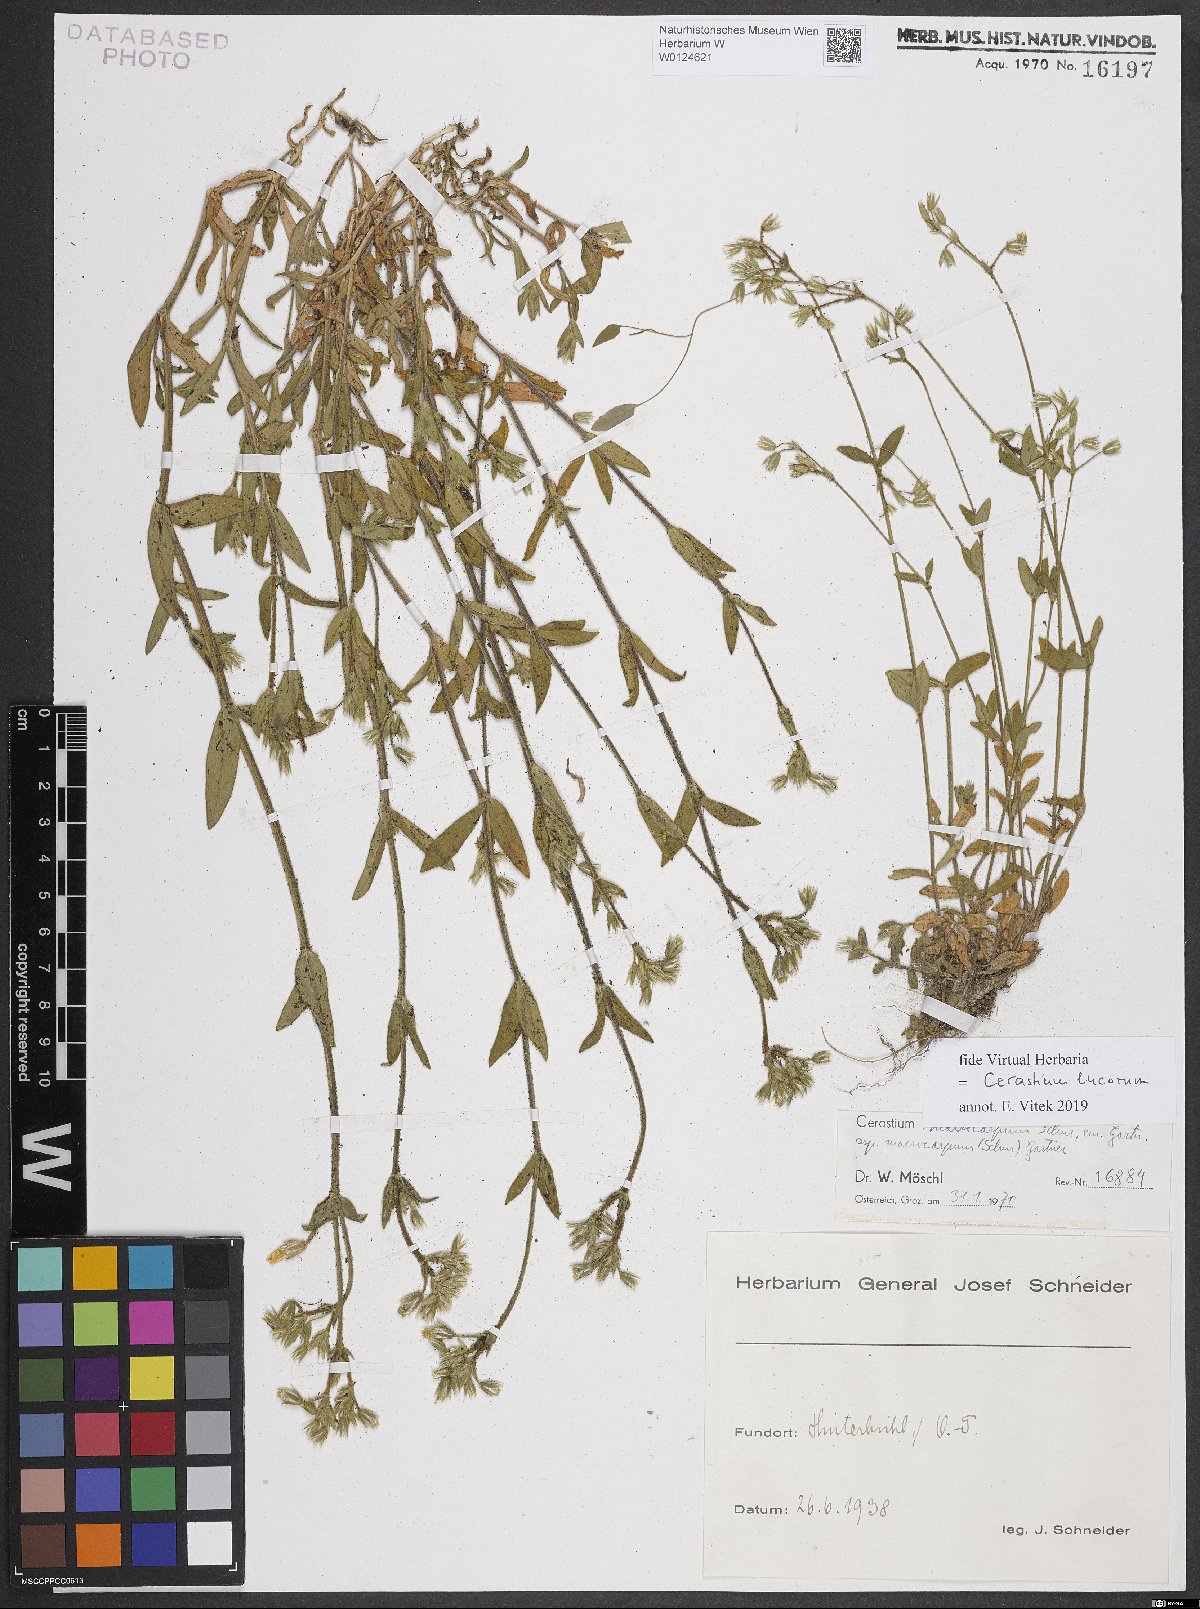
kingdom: Plantae
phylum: Tracheophyta
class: Magnoliopsida
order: Caryophyllales
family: Caryophyllaceae
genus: Cerastium
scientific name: Cerastium lucorum
